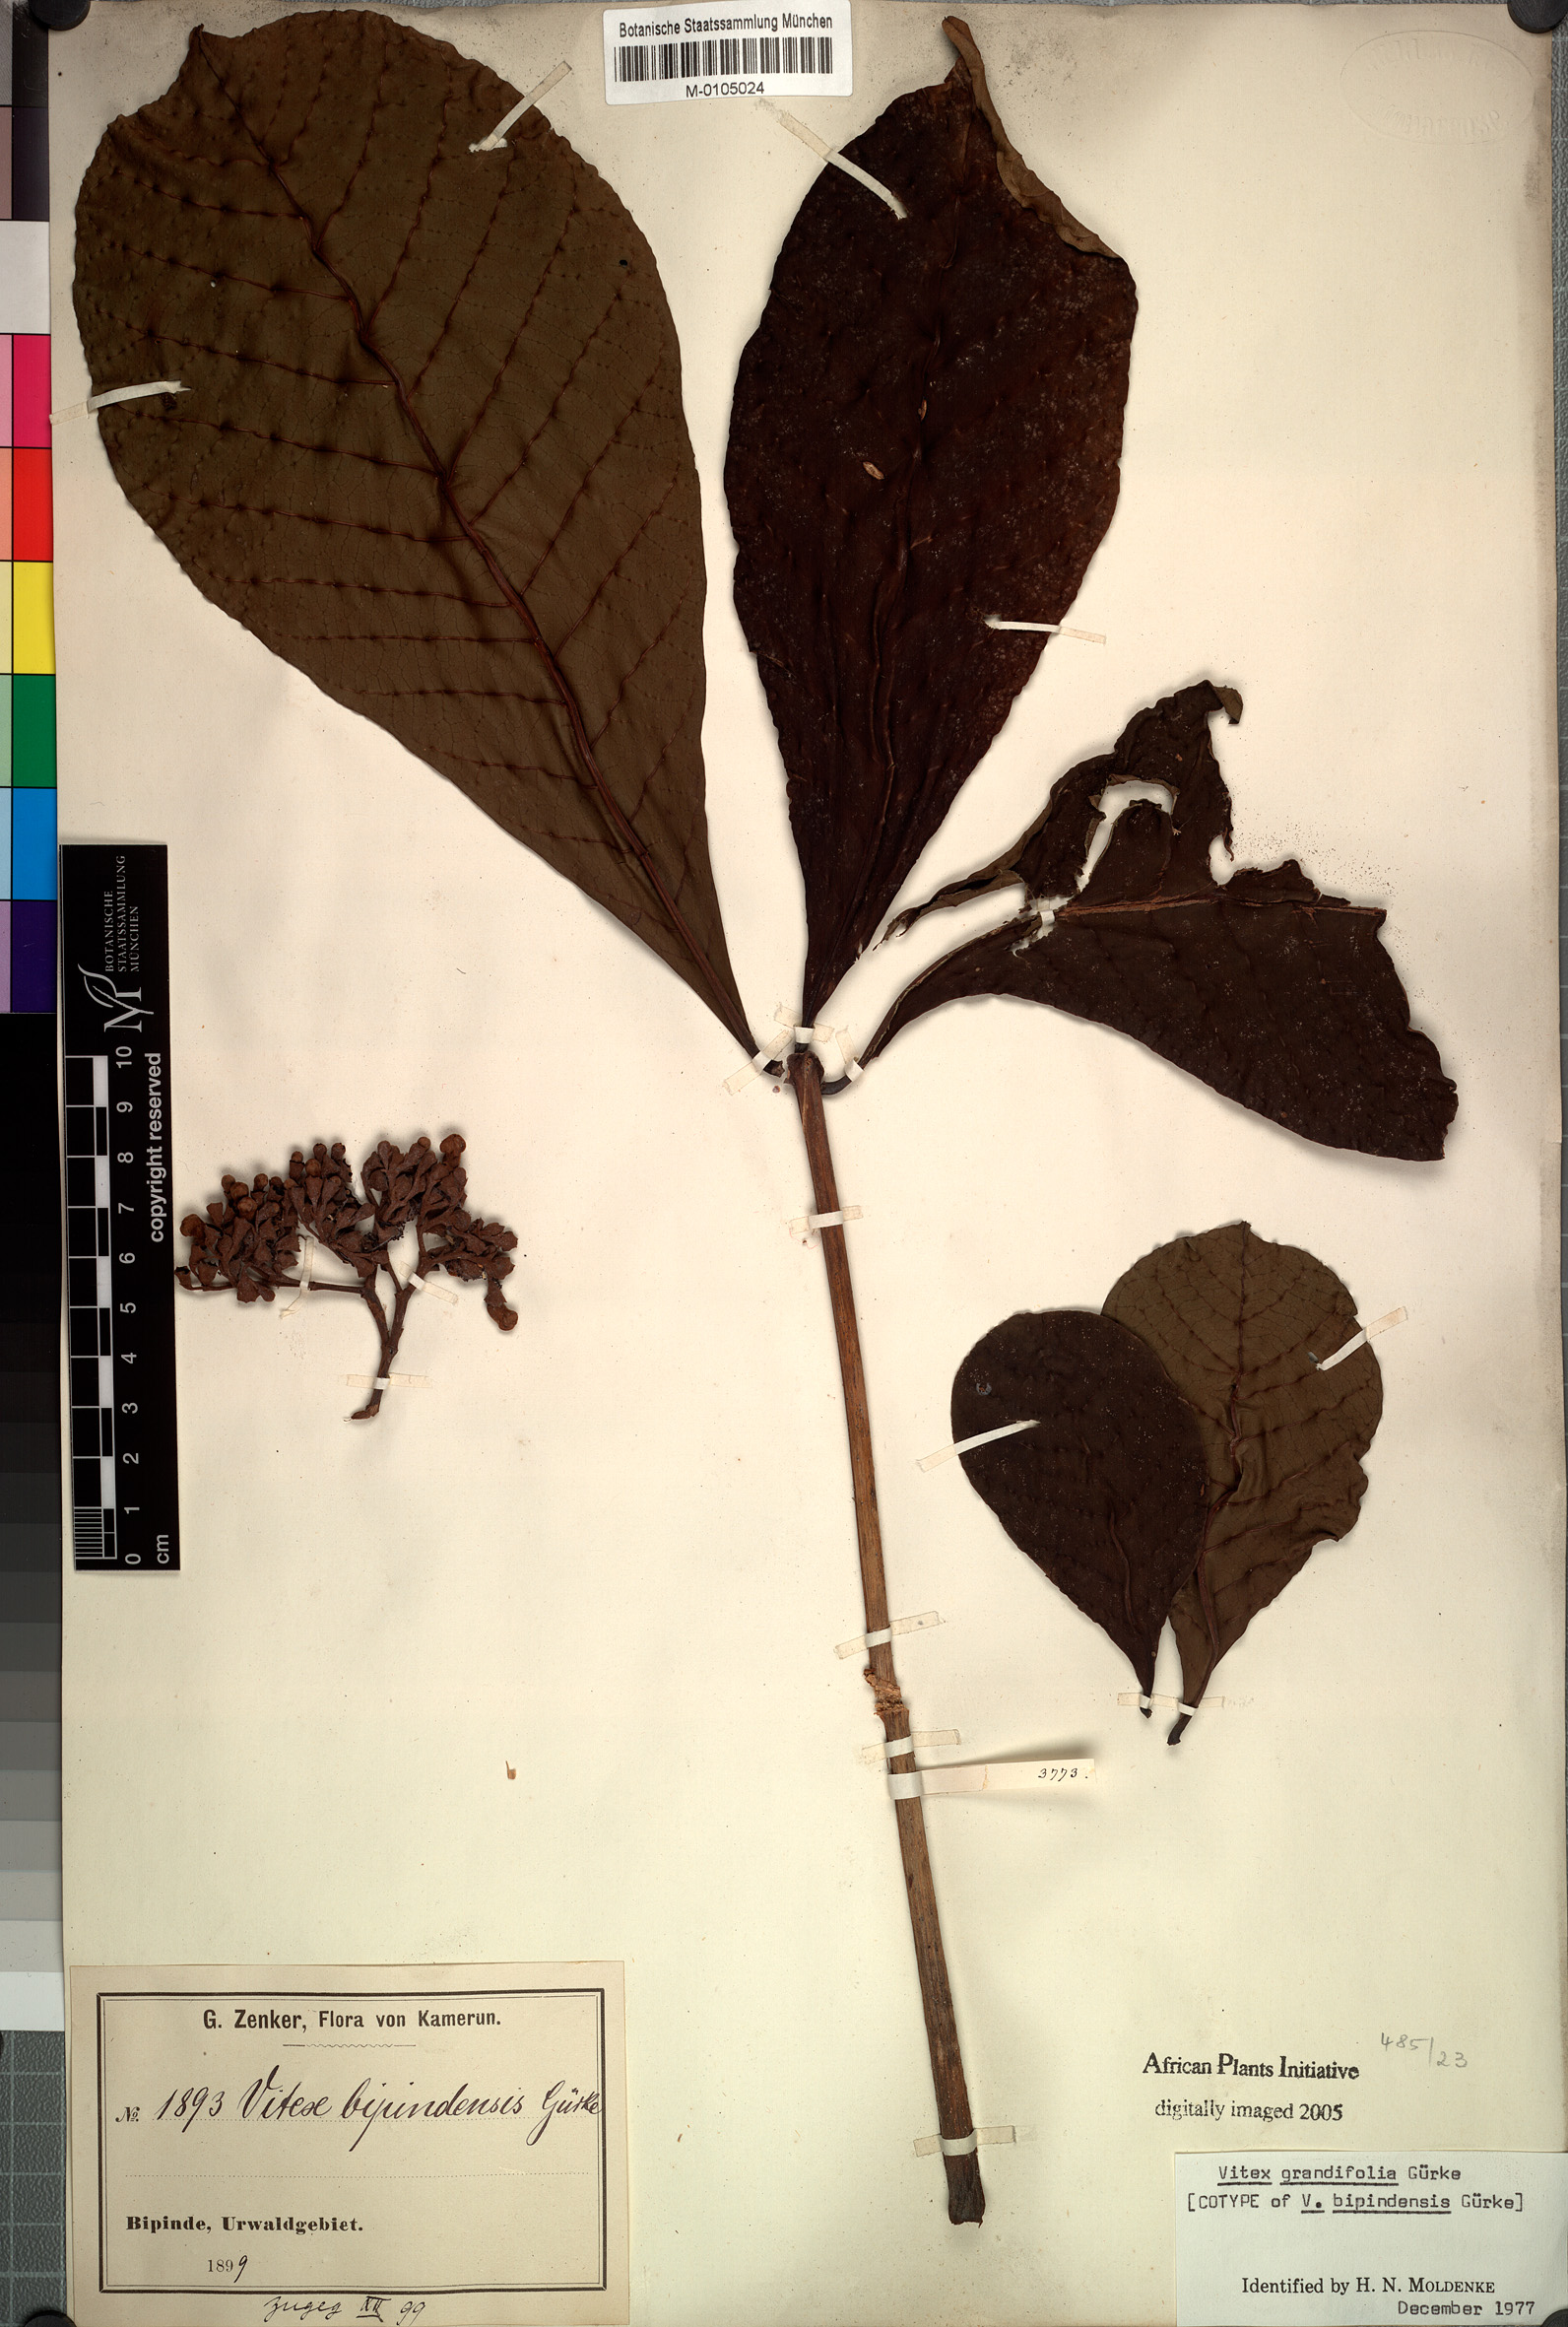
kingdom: Plantae
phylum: Tracheophyta
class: Magnoliopsida
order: Lamiales
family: Lamiaceae
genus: Vitex
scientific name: Vitex grandifolia
